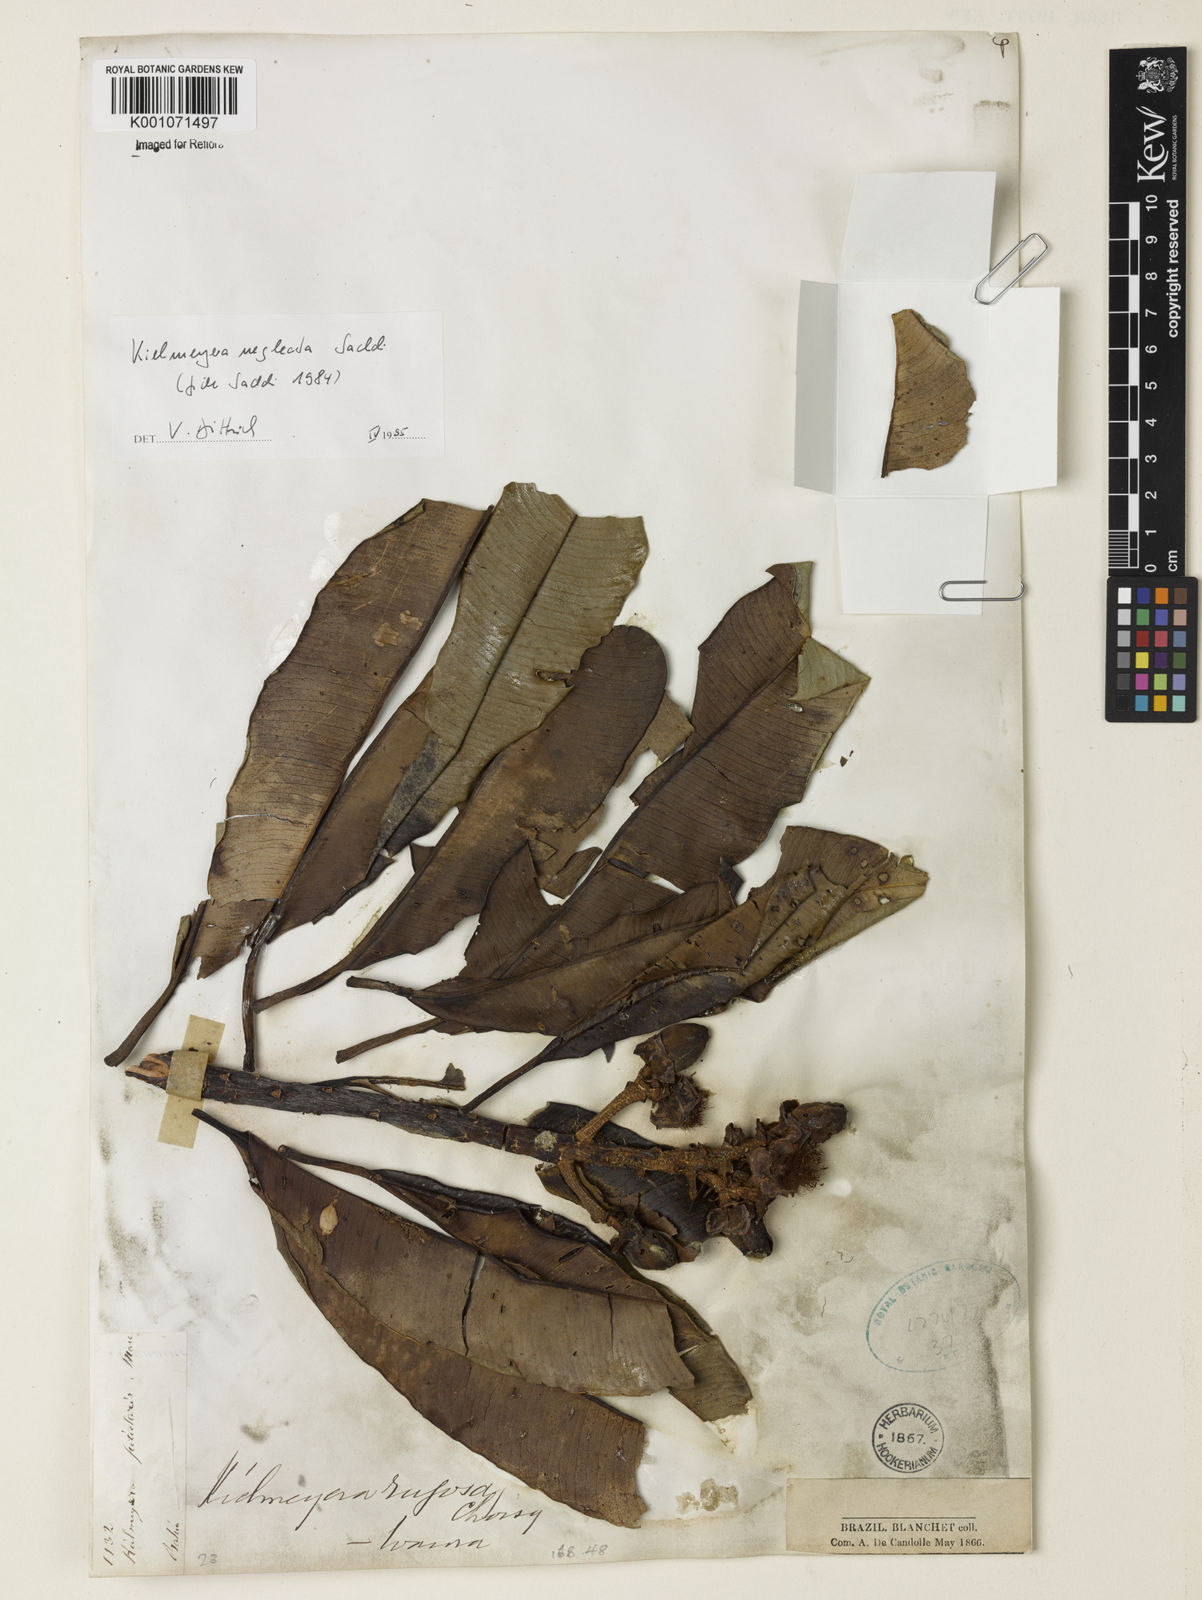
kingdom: Plantae
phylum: Tracheophyta
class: Magnoliopsida
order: Malpighiales
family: Calophyllaceae
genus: Kielmeyera
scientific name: Kielmeyera neglecta
